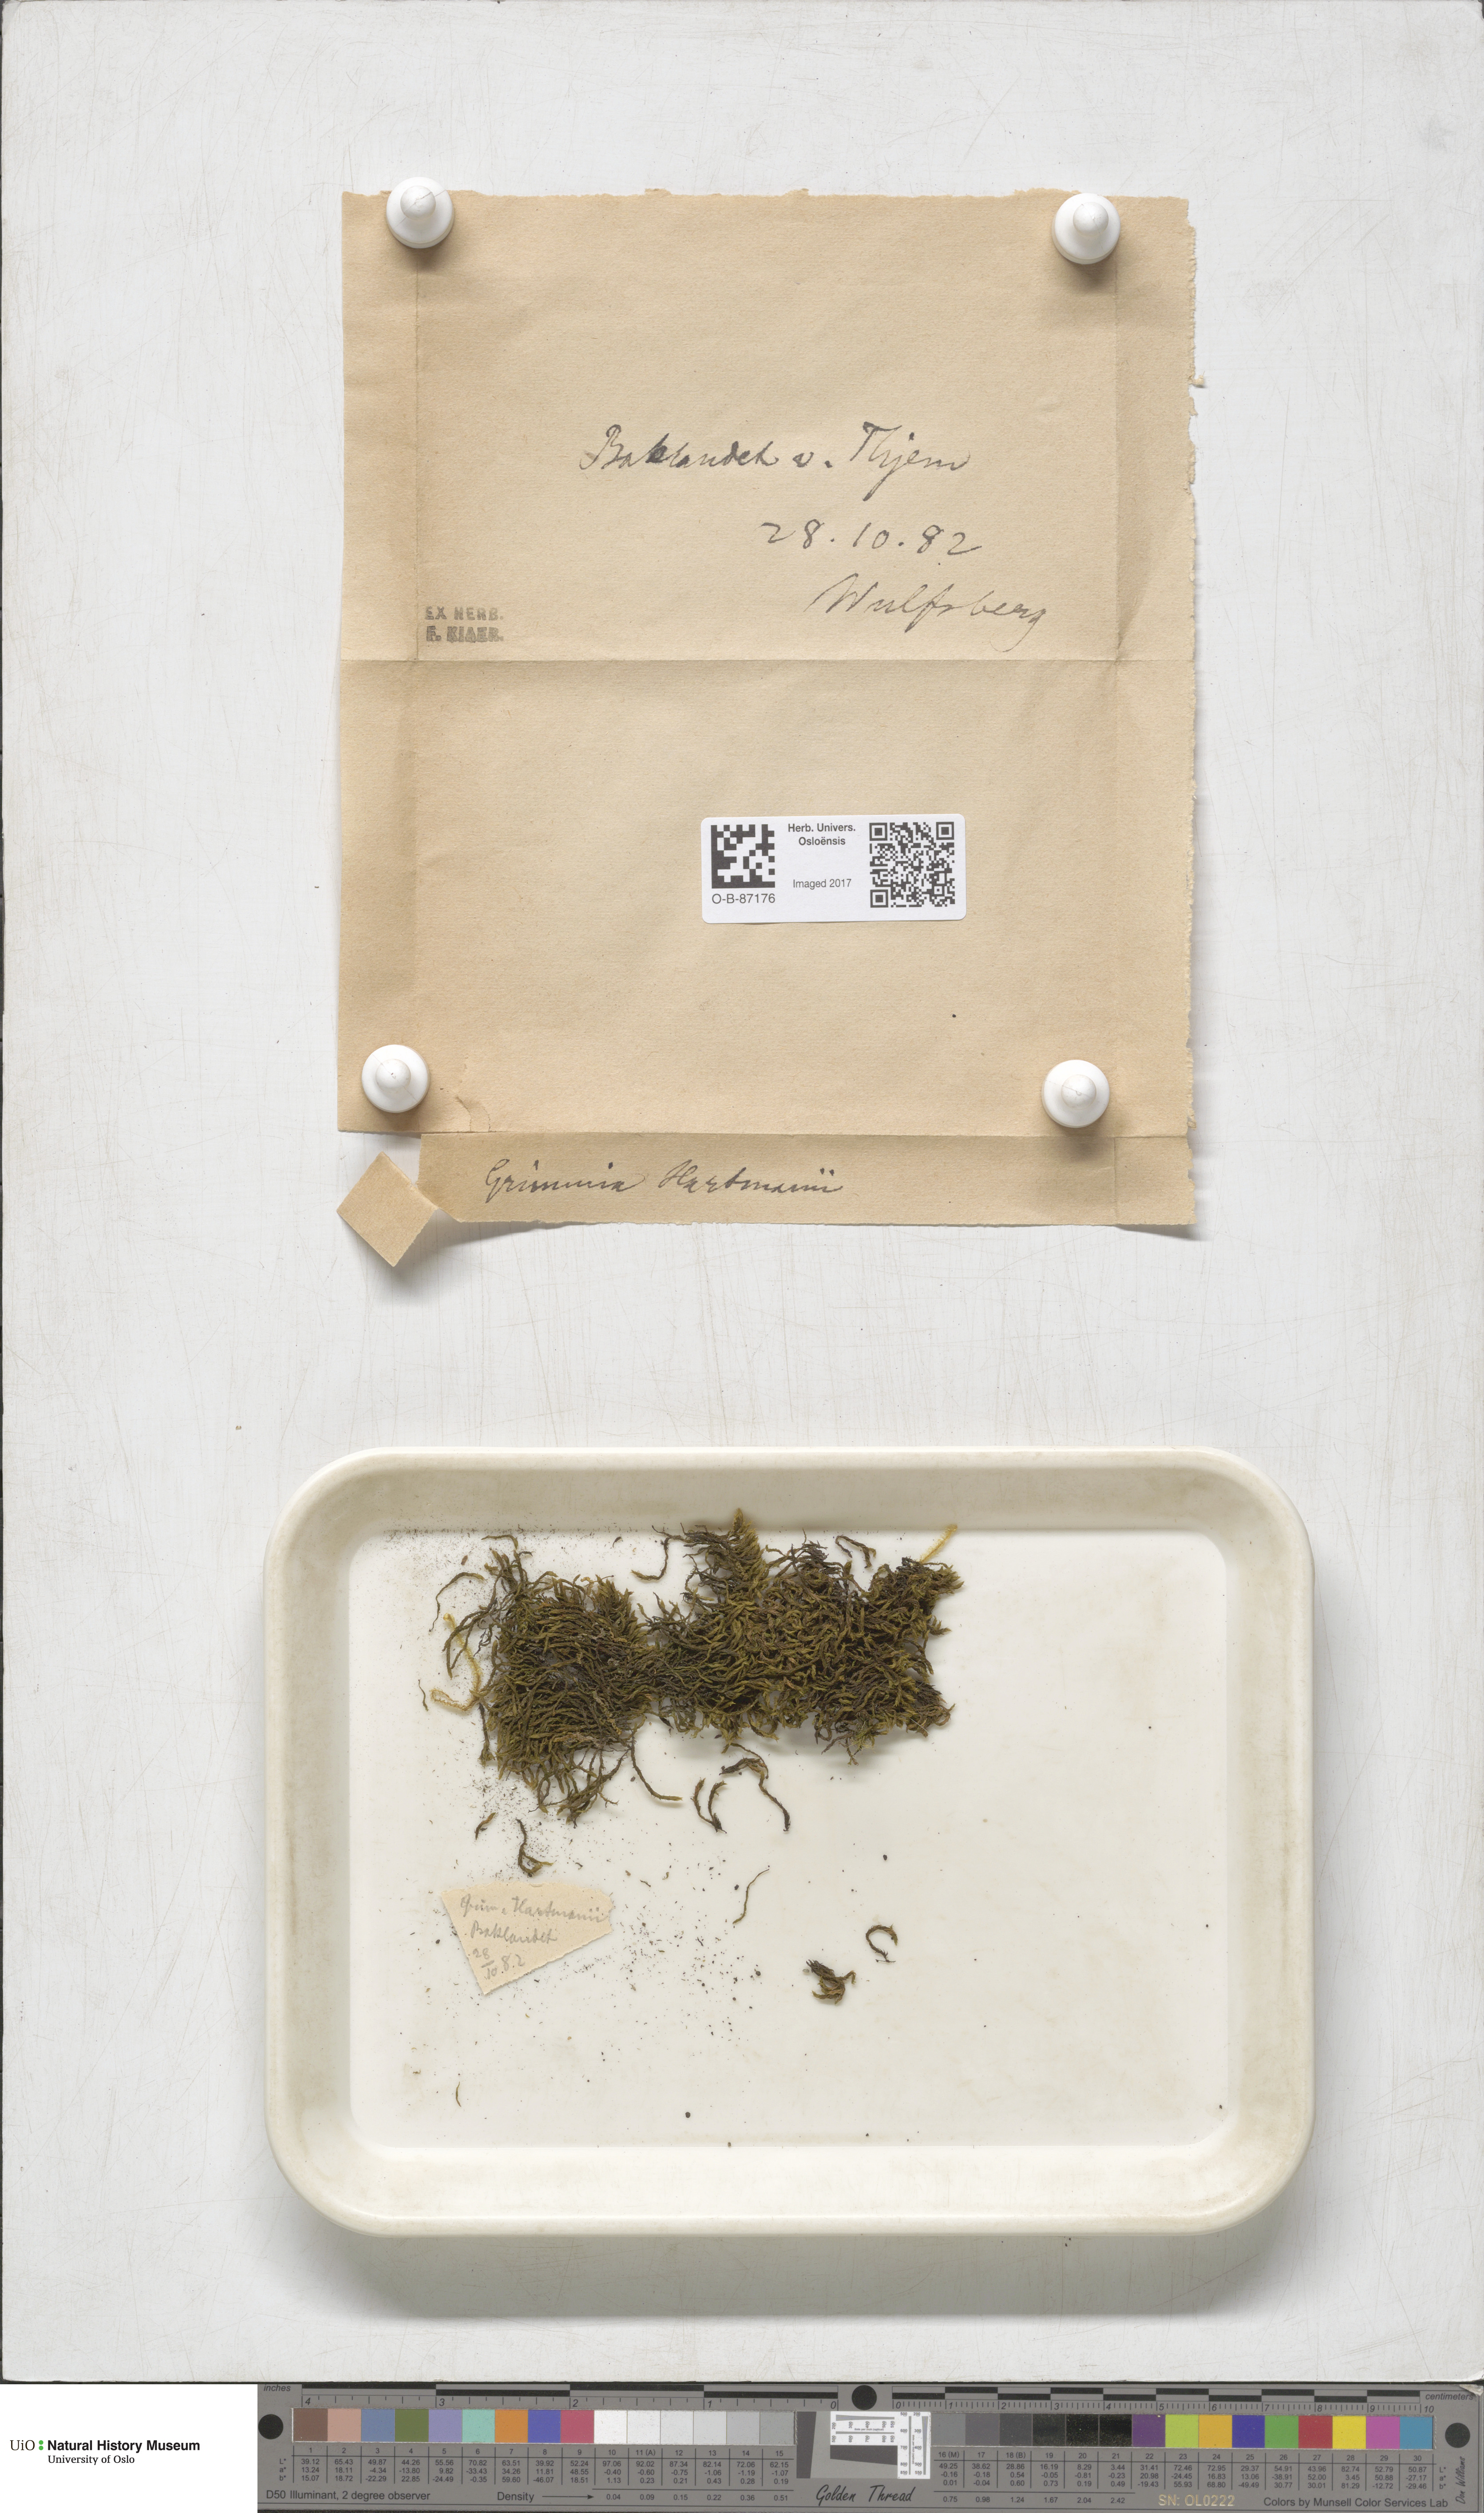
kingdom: Plantae
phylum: Bryophyta
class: Bryopsida
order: Grimmiales
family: Grimmiaceae
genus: Grimmia
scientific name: Grimmia hartmanii
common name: Hartman's grimmia
